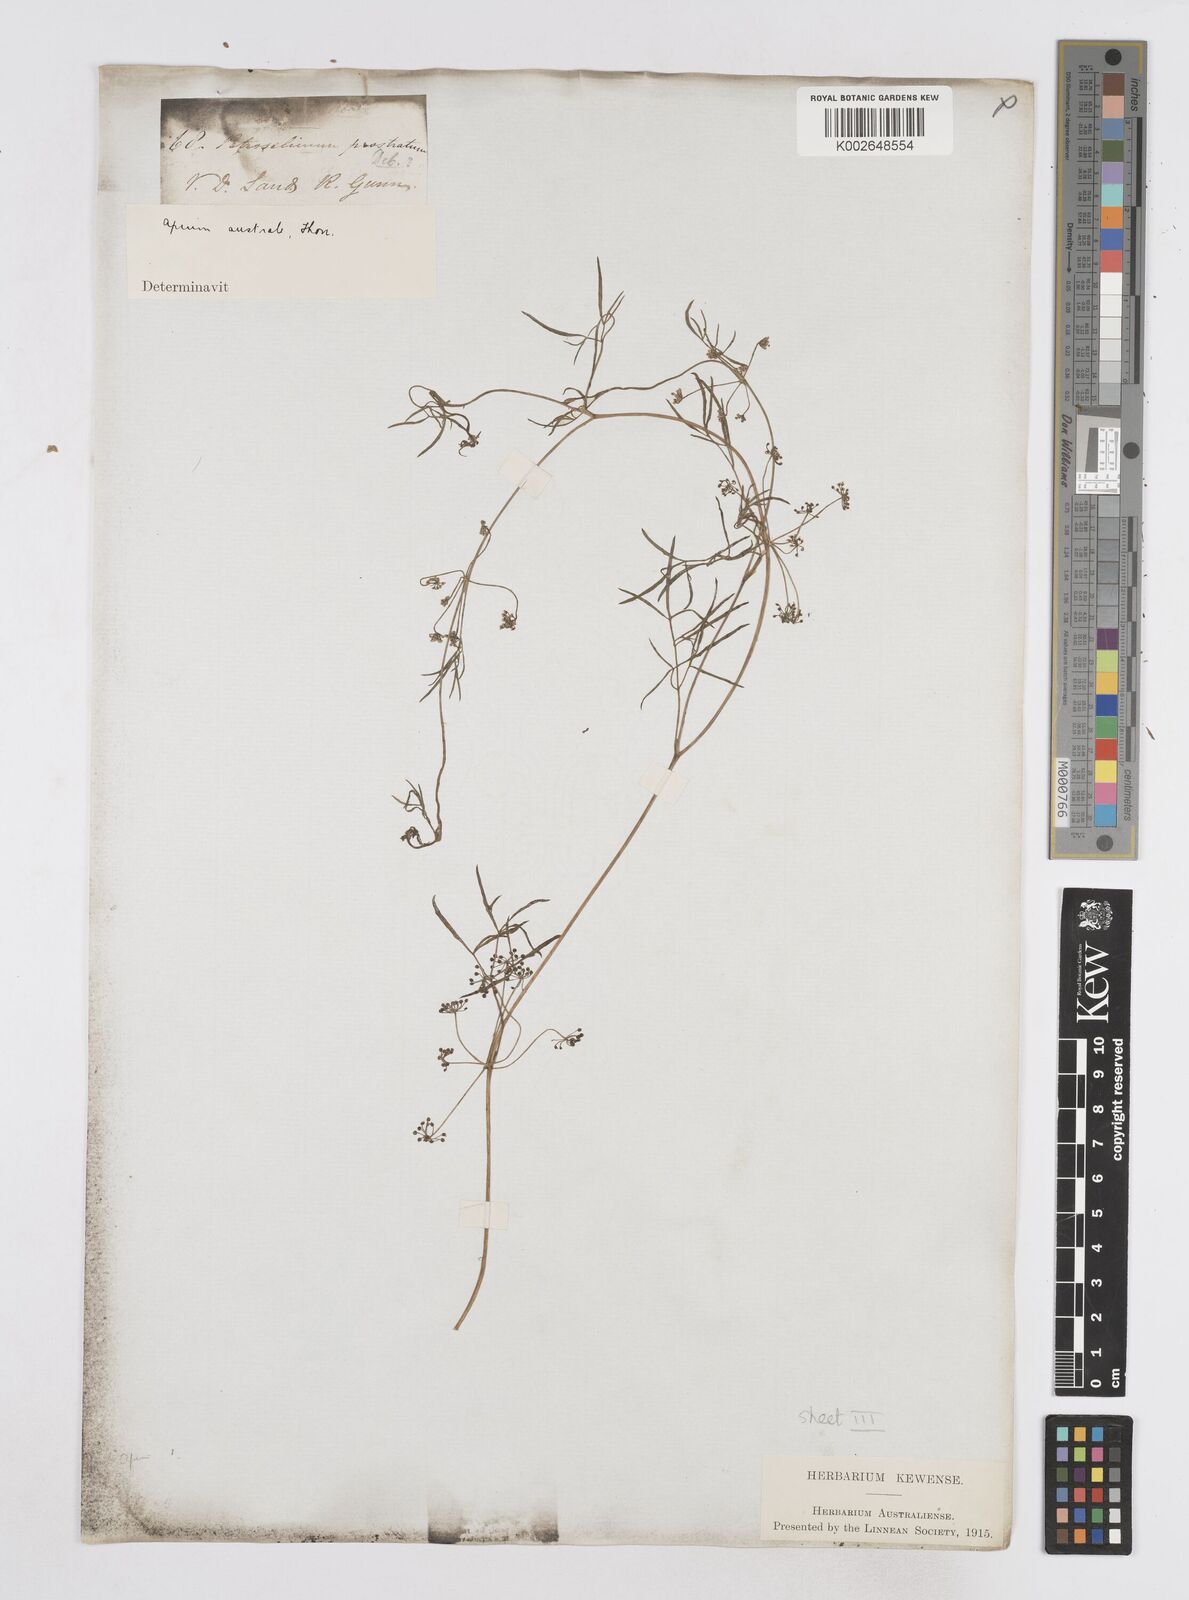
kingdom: Plantae
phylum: Tracheophyta
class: Magnoliopsida
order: Apiales
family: Apiaceae
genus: Apium
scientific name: Apium prostratum
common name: Prostrate marshwort
